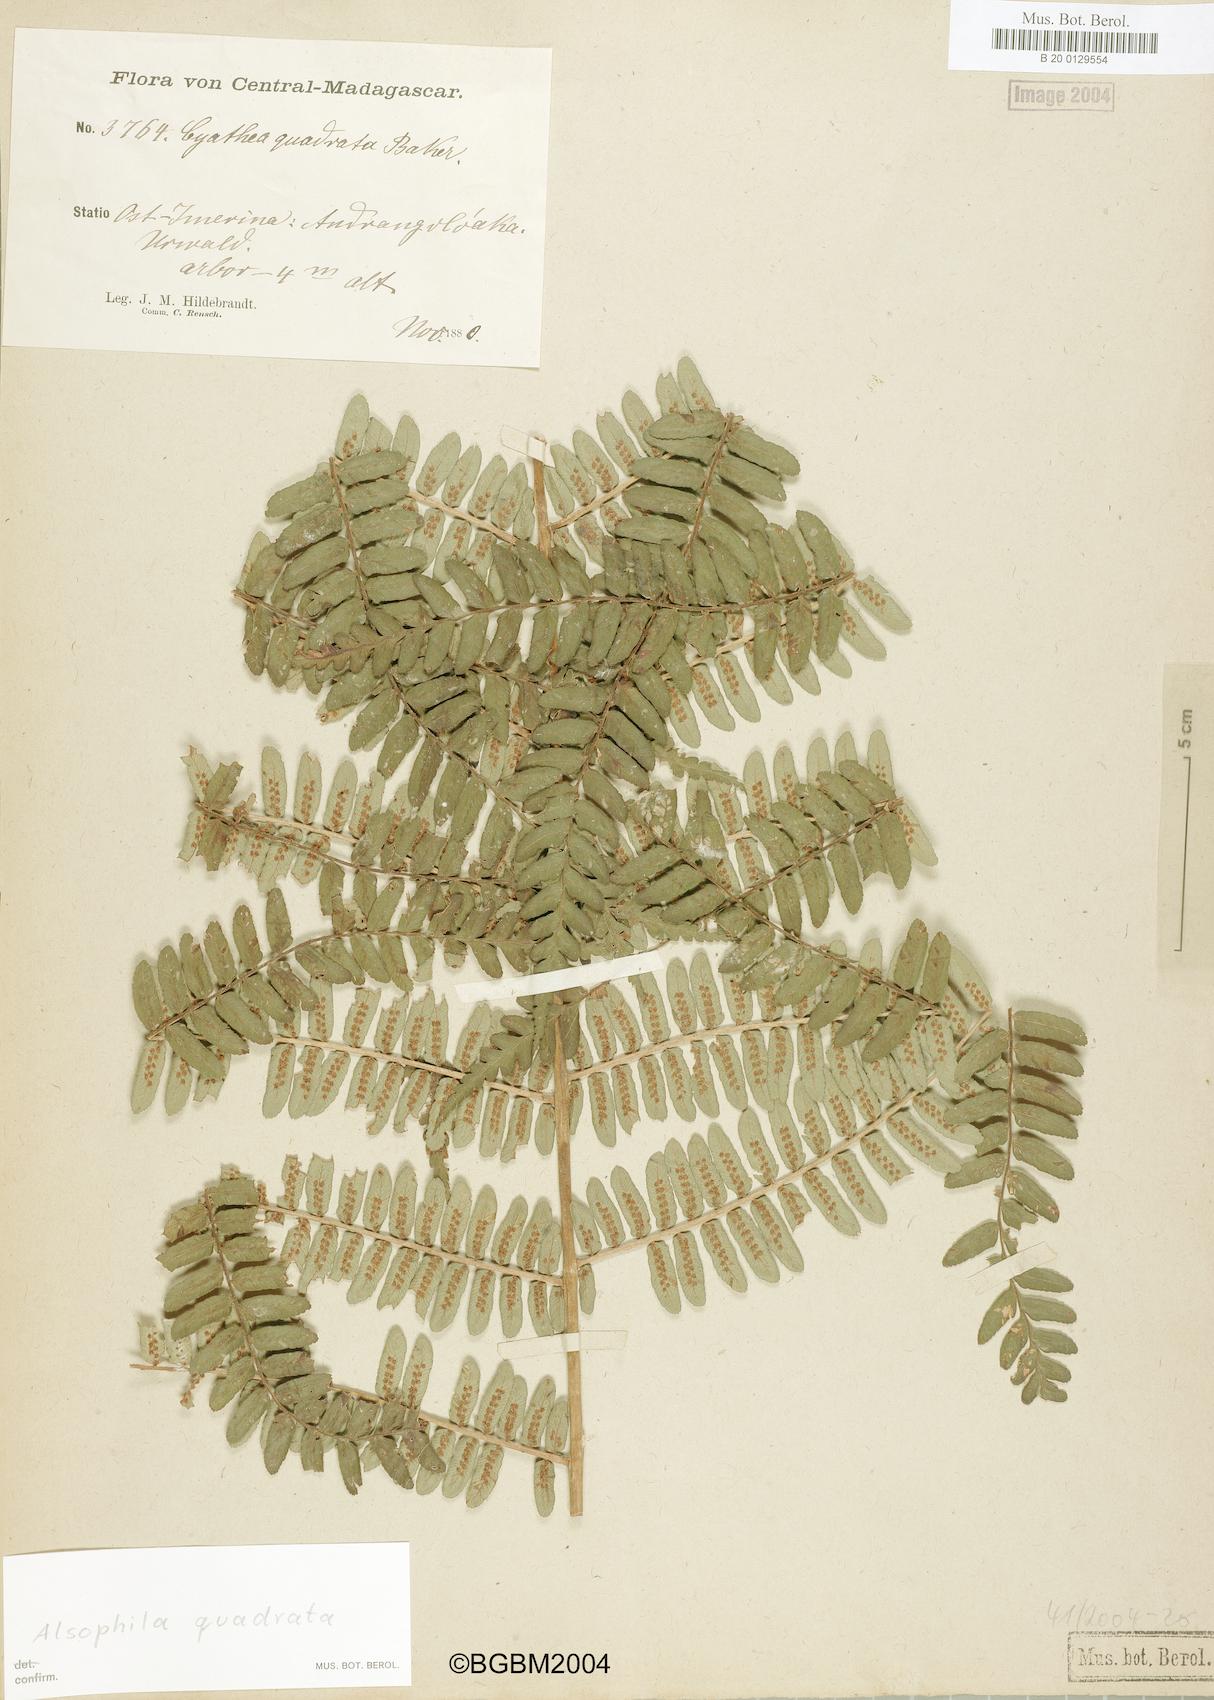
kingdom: Plantae
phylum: Tracheophyta
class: Polypodiopsida
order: Cyatheales
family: Cyatheaceae
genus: Alsophila
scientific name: Alsophila quadrata
